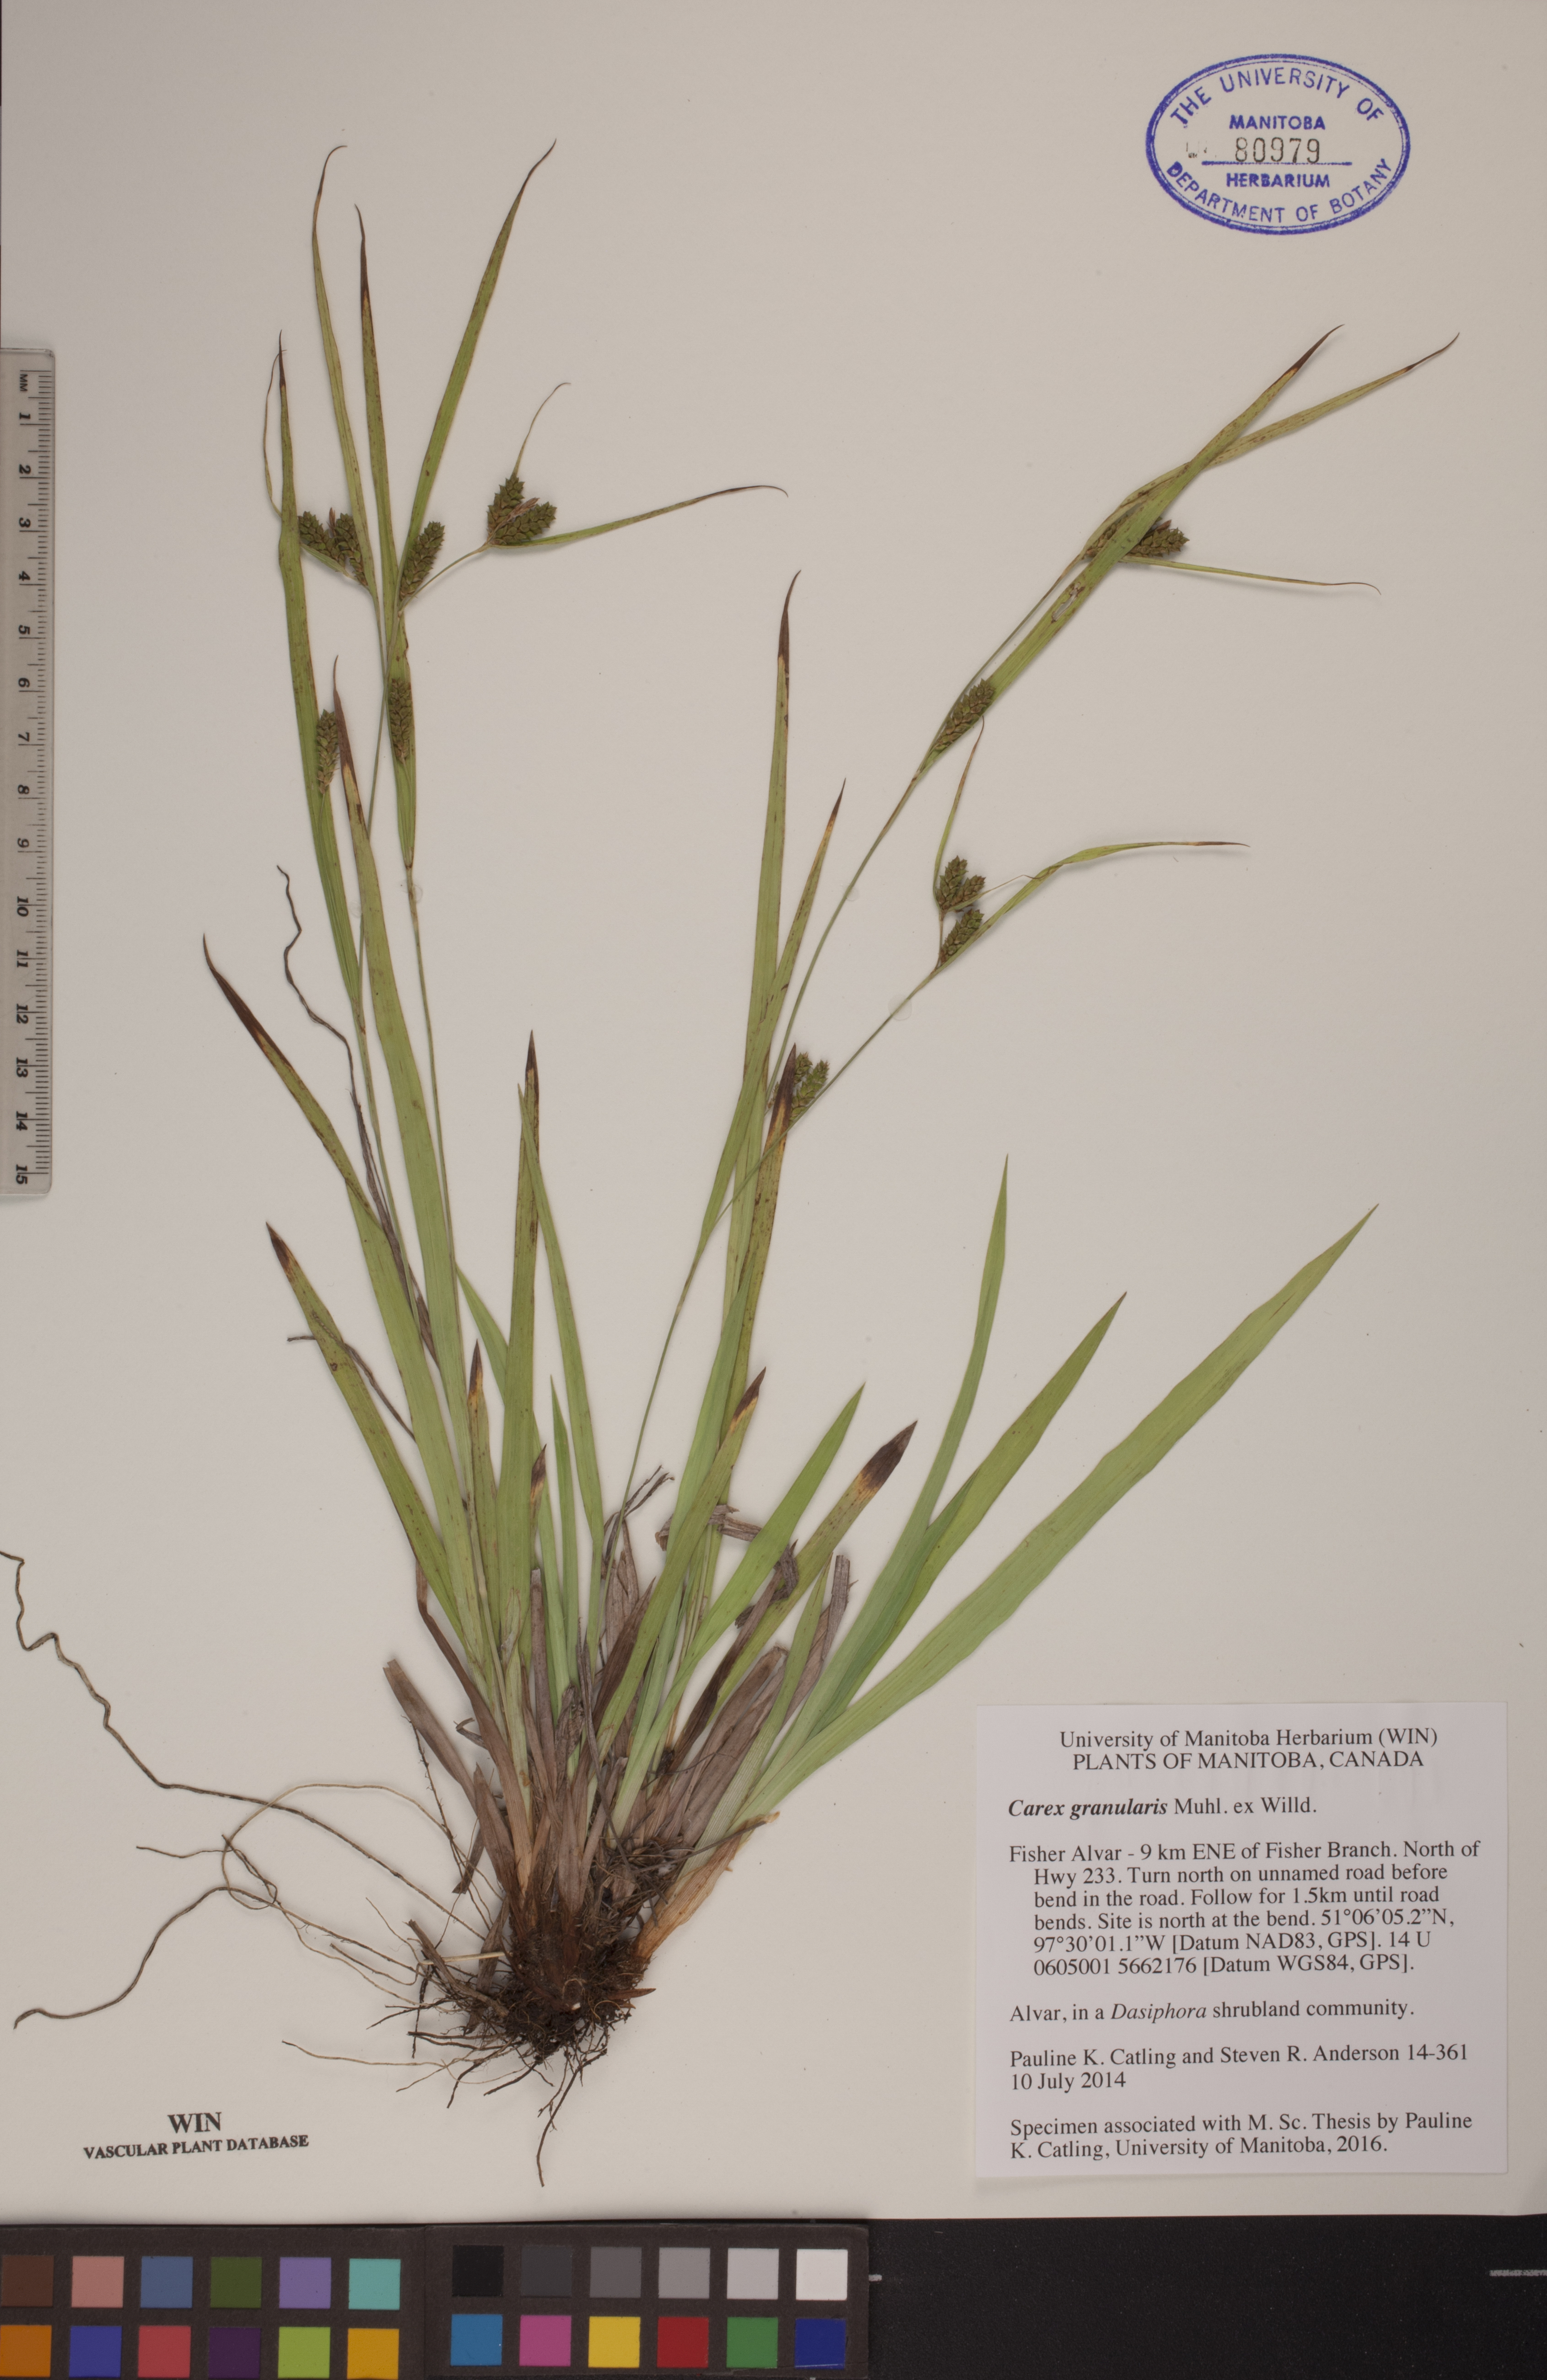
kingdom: Plantae
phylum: Tracheophyta
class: Liliopsida
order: Poales
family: Cyperaceae
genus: Carex
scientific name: Carex granularis
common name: Granular sedge
